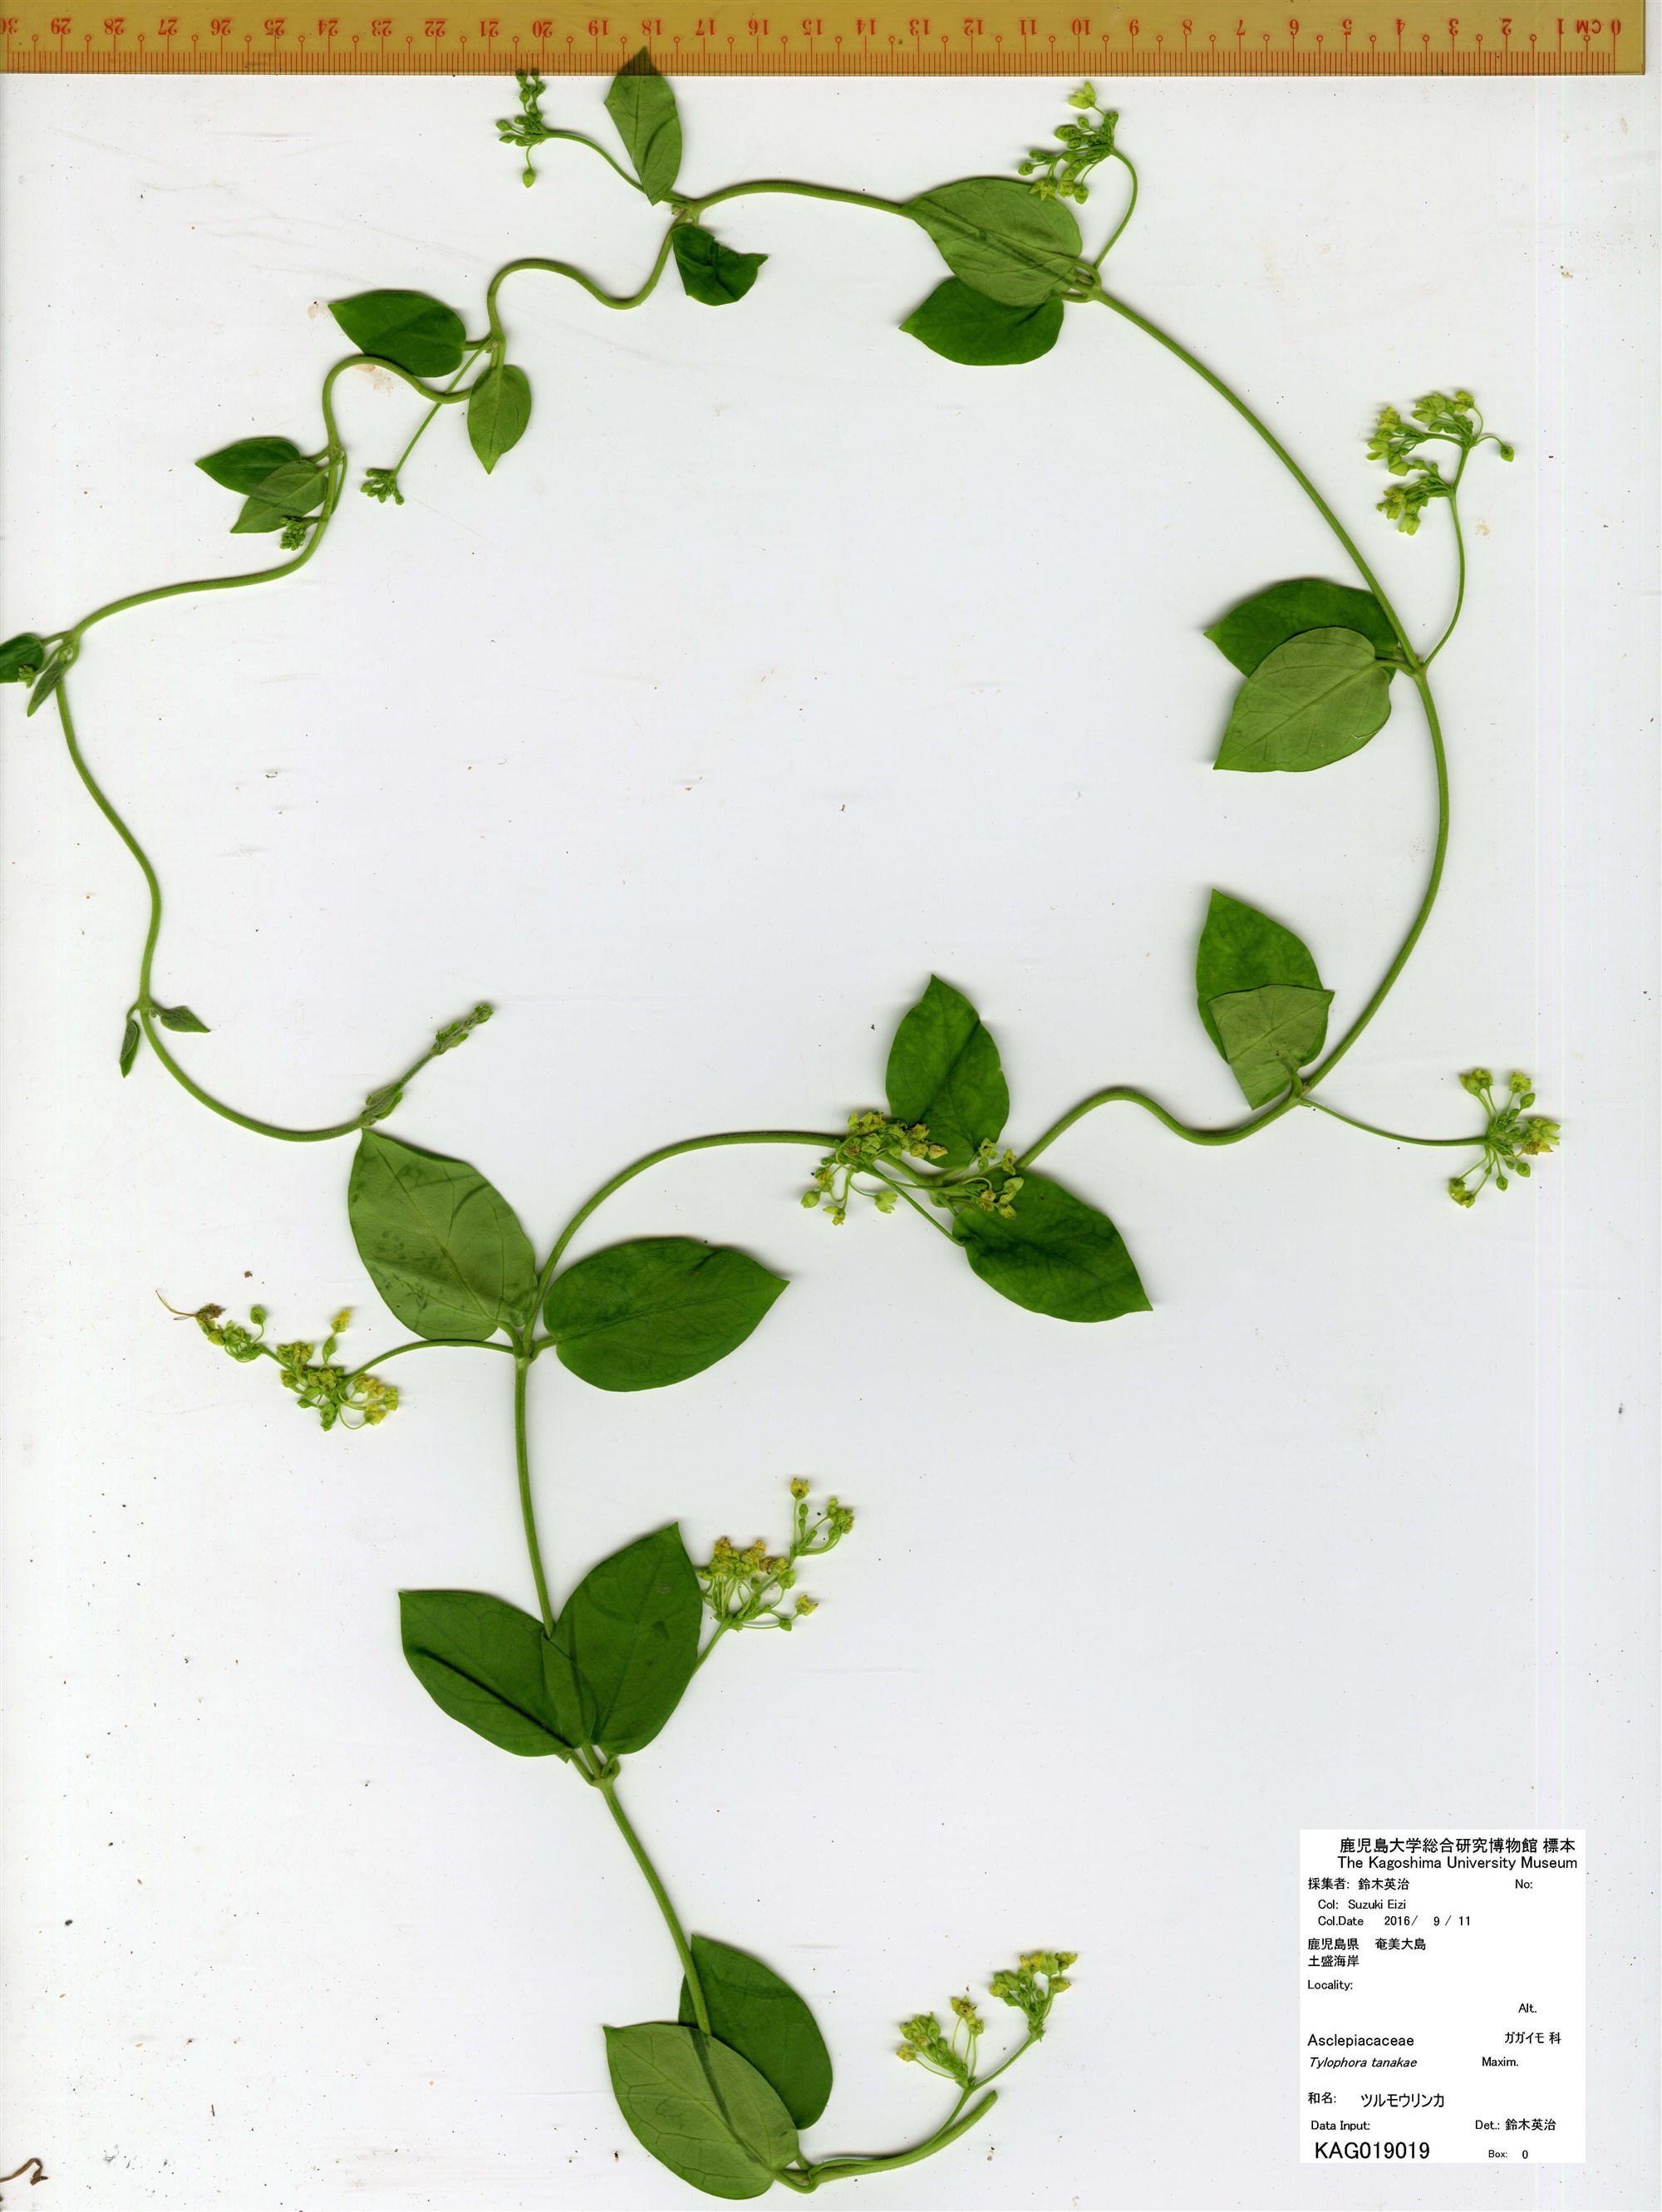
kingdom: Plantae
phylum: Tracheophyta
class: Magnoliopsida
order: Gentianales
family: Apocynaceae
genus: Vincetoxicum
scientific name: Vincetoxicum tanakae
